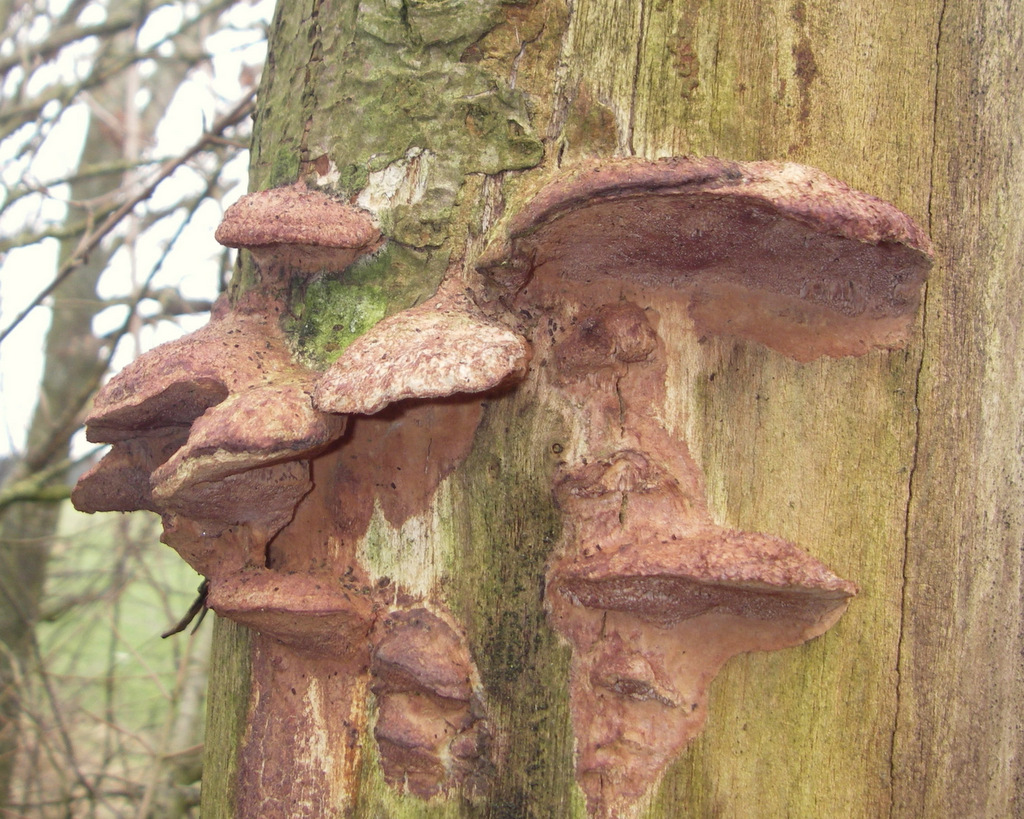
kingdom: Fungi
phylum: Basidiomycota
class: Agaricomycetes
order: Polyporales
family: Phanerochaetaceae
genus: Hapalopilus
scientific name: Hapalopilus rutilans
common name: rødlig okkerporesvamp
